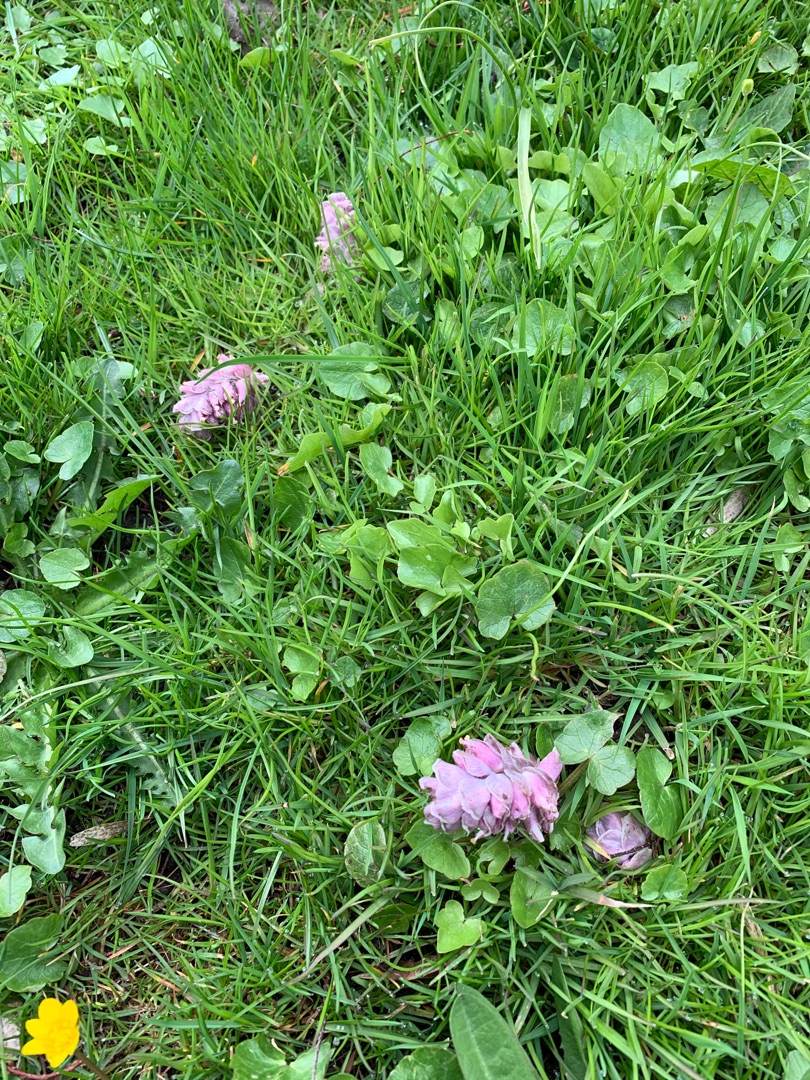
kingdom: Plantae
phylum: Tracheophyta
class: Magnoliopsida
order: Lamiales
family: Orobanchaceae
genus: Lathraea
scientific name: Lathraea squamaria
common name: Skælrod
